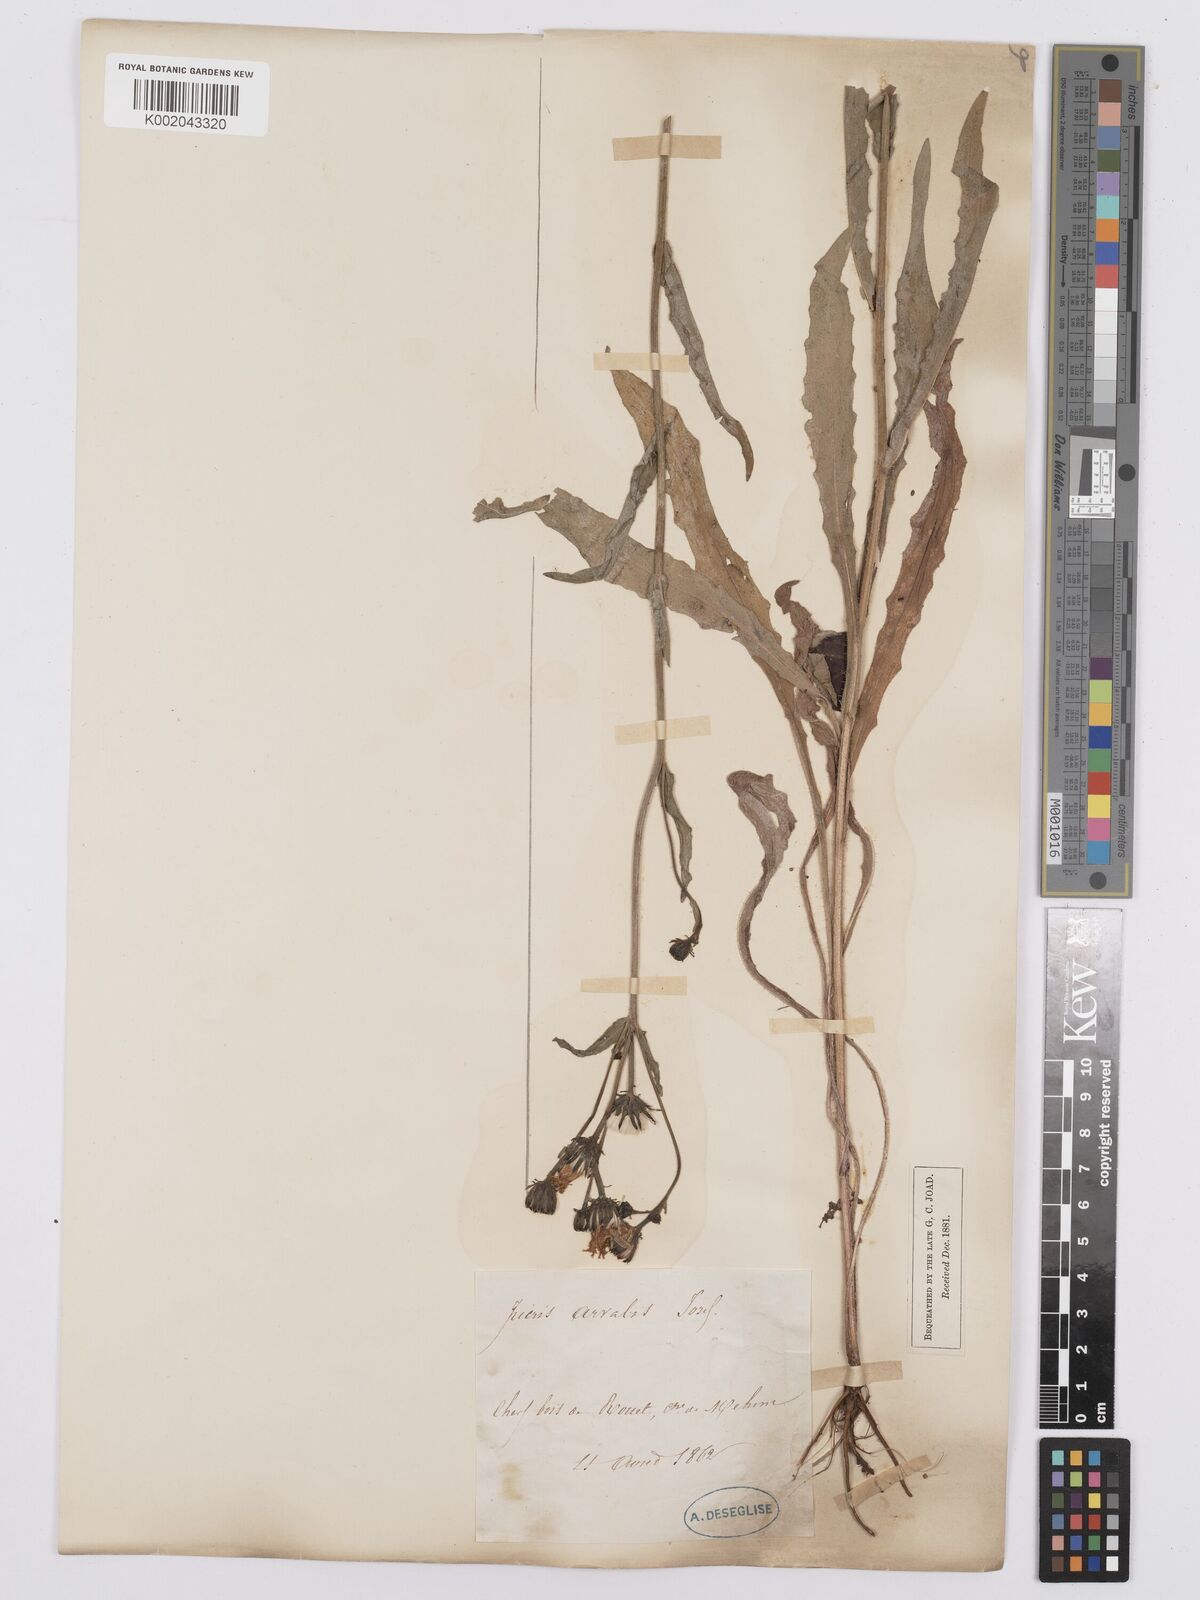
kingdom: Plantae
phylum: Tracheophyta
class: Magnoliopsida
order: Asterales
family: Asteraceae
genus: Picris
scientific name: Picris hieracioides
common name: Hawkweed oxtongue
